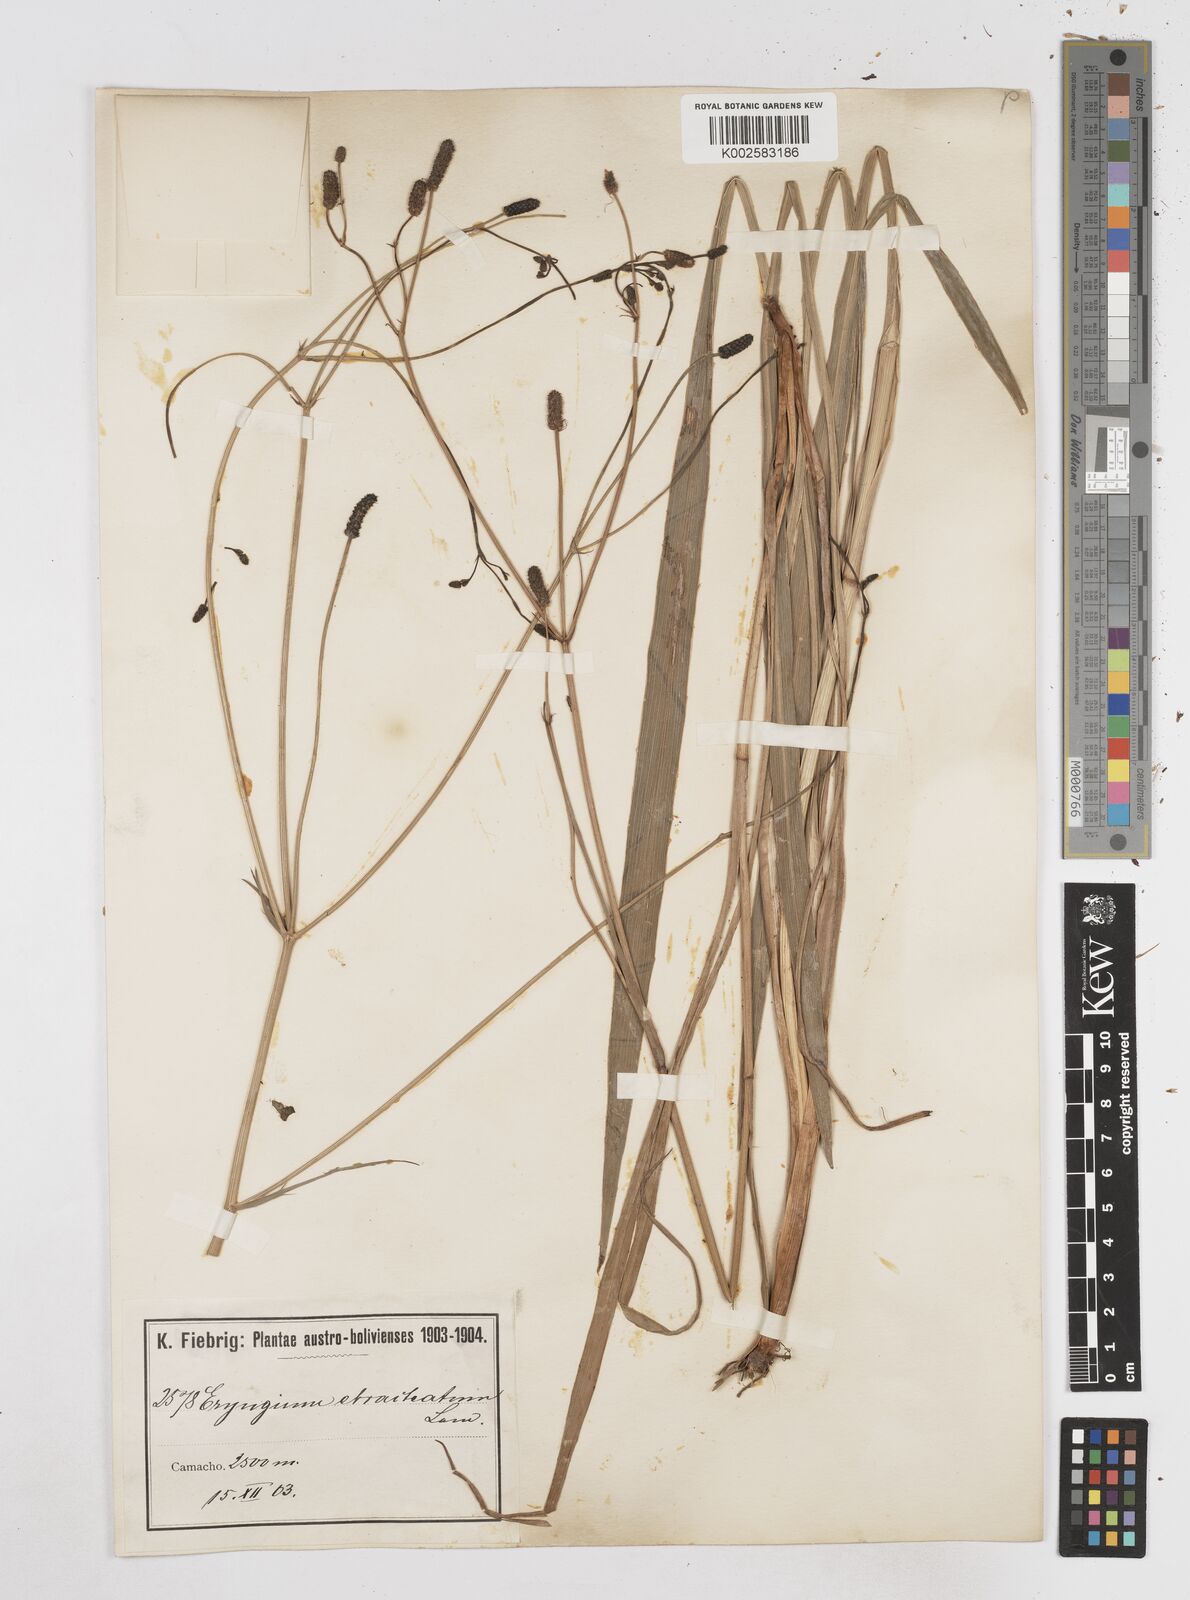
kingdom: Plantae
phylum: Tracheophyta
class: Magnoliopsida
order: Apiales
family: Apiaceae
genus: Eryngium
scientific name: Eryngium ebracteatum
